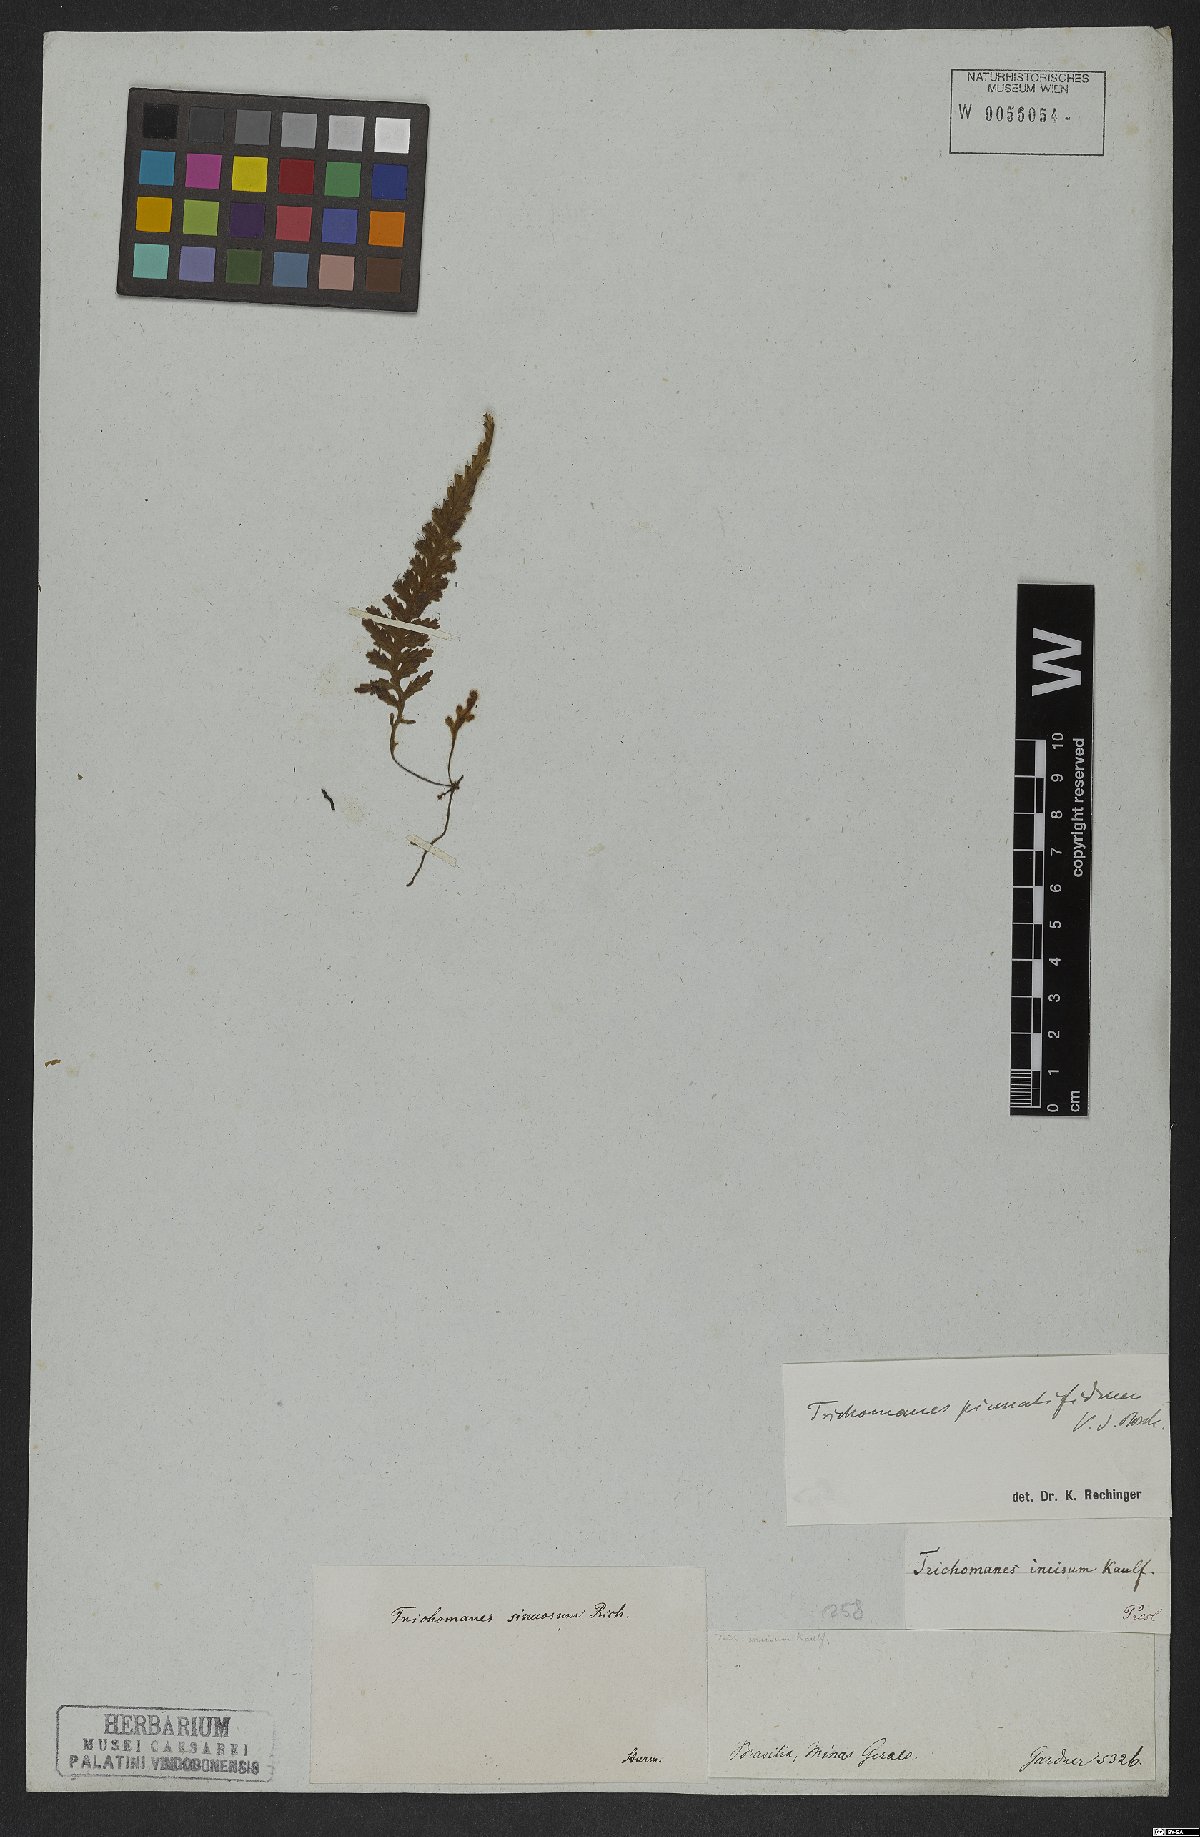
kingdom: Plantae
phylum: Tracheophyta
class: Polypodiopsida
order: Hymenophyllales
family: Hymenophyllaceae
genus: Trichomanes
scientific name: Trichomanes pinnatifidum
